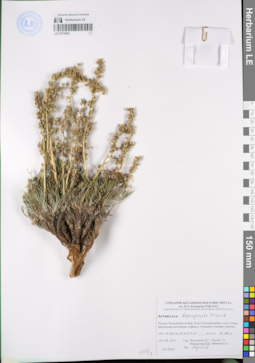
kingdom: Plantae
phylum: Tracheophyta
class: Magnoliopsida
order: Asterales
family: Asteraceae
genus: Artemisia
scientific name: Artemisia pycnorrhiza
